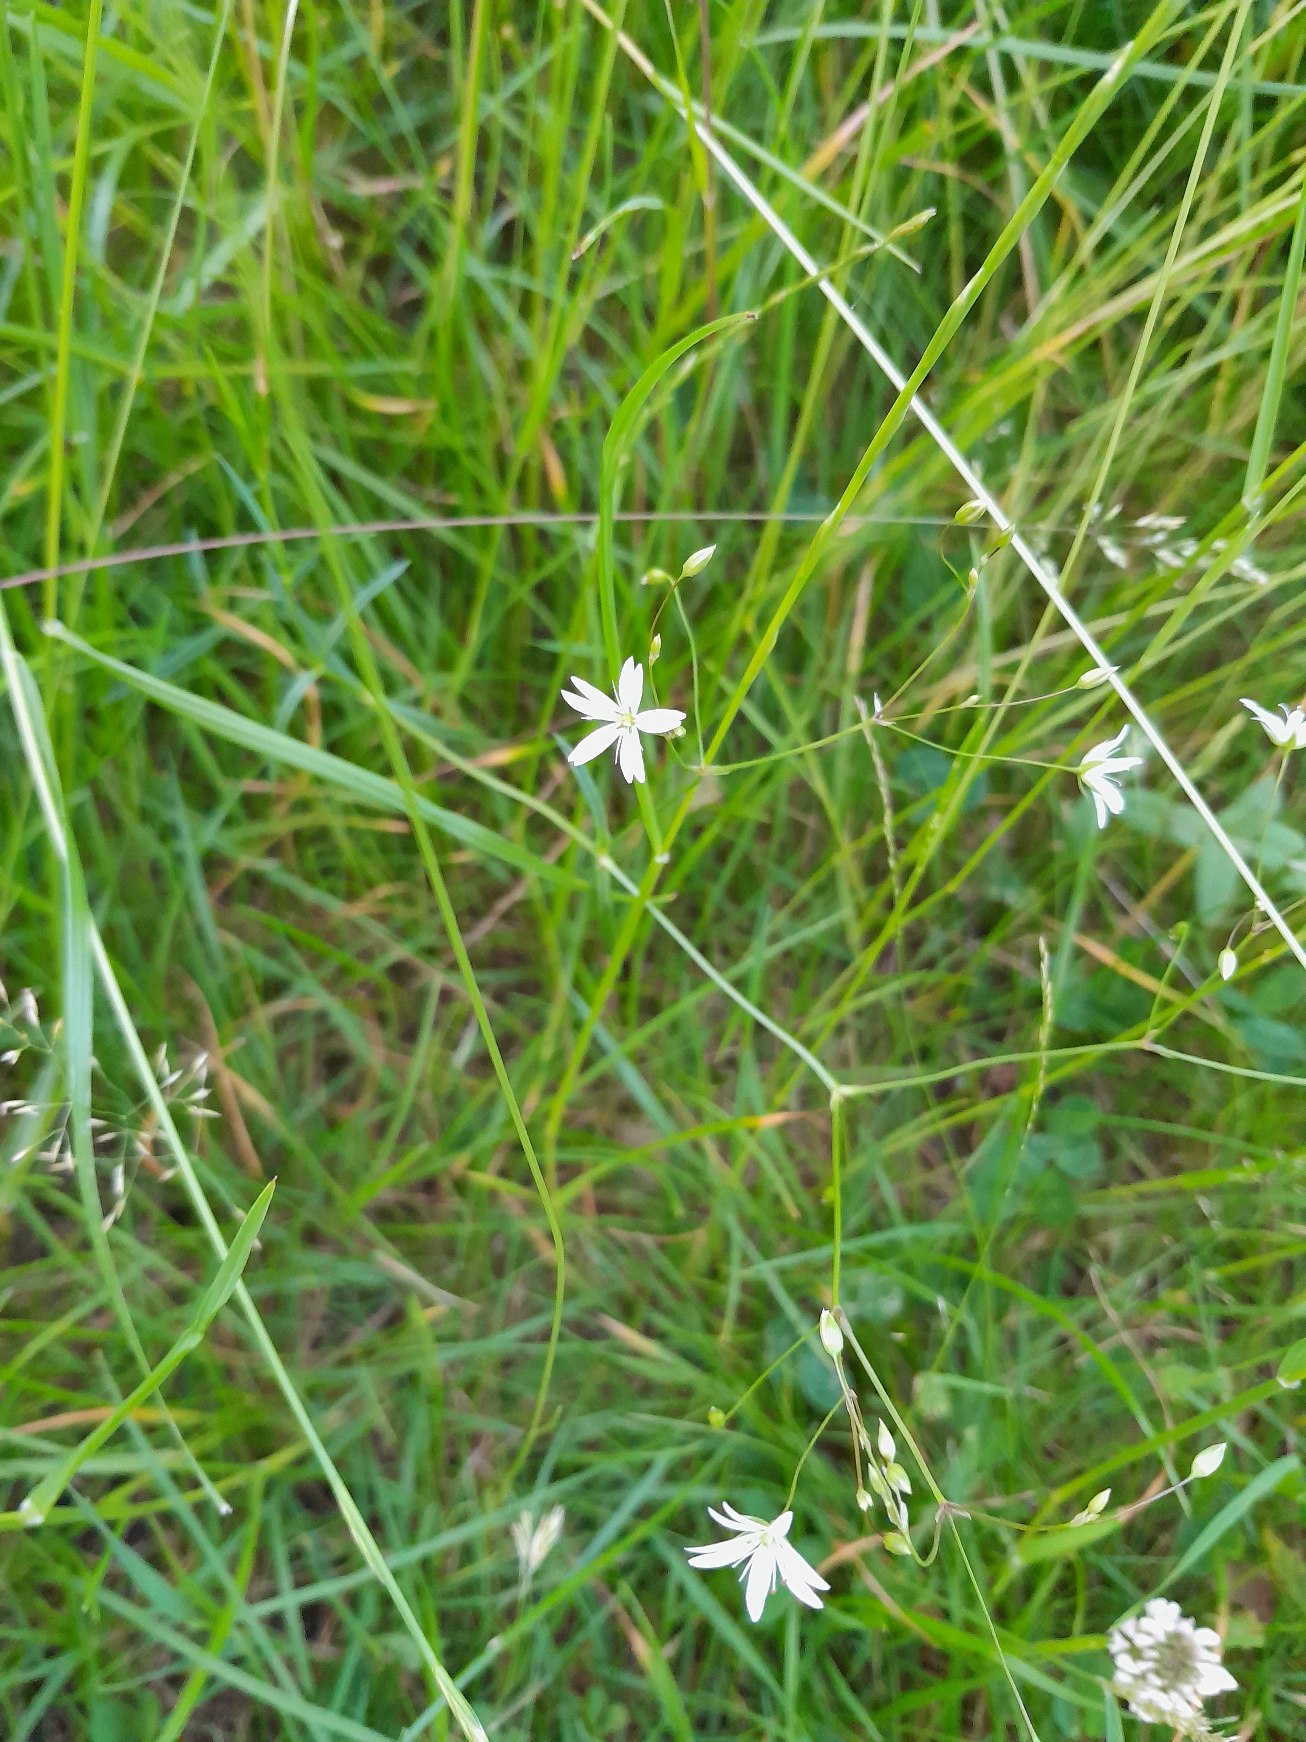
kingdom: Plantae
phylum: Tracheophyta
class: Magnoliopsida
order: Caryophyllales
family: Caryophyllaceae
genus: Stellaria
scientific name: Stellaria graminea
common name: Græsbladet fladstjerne
